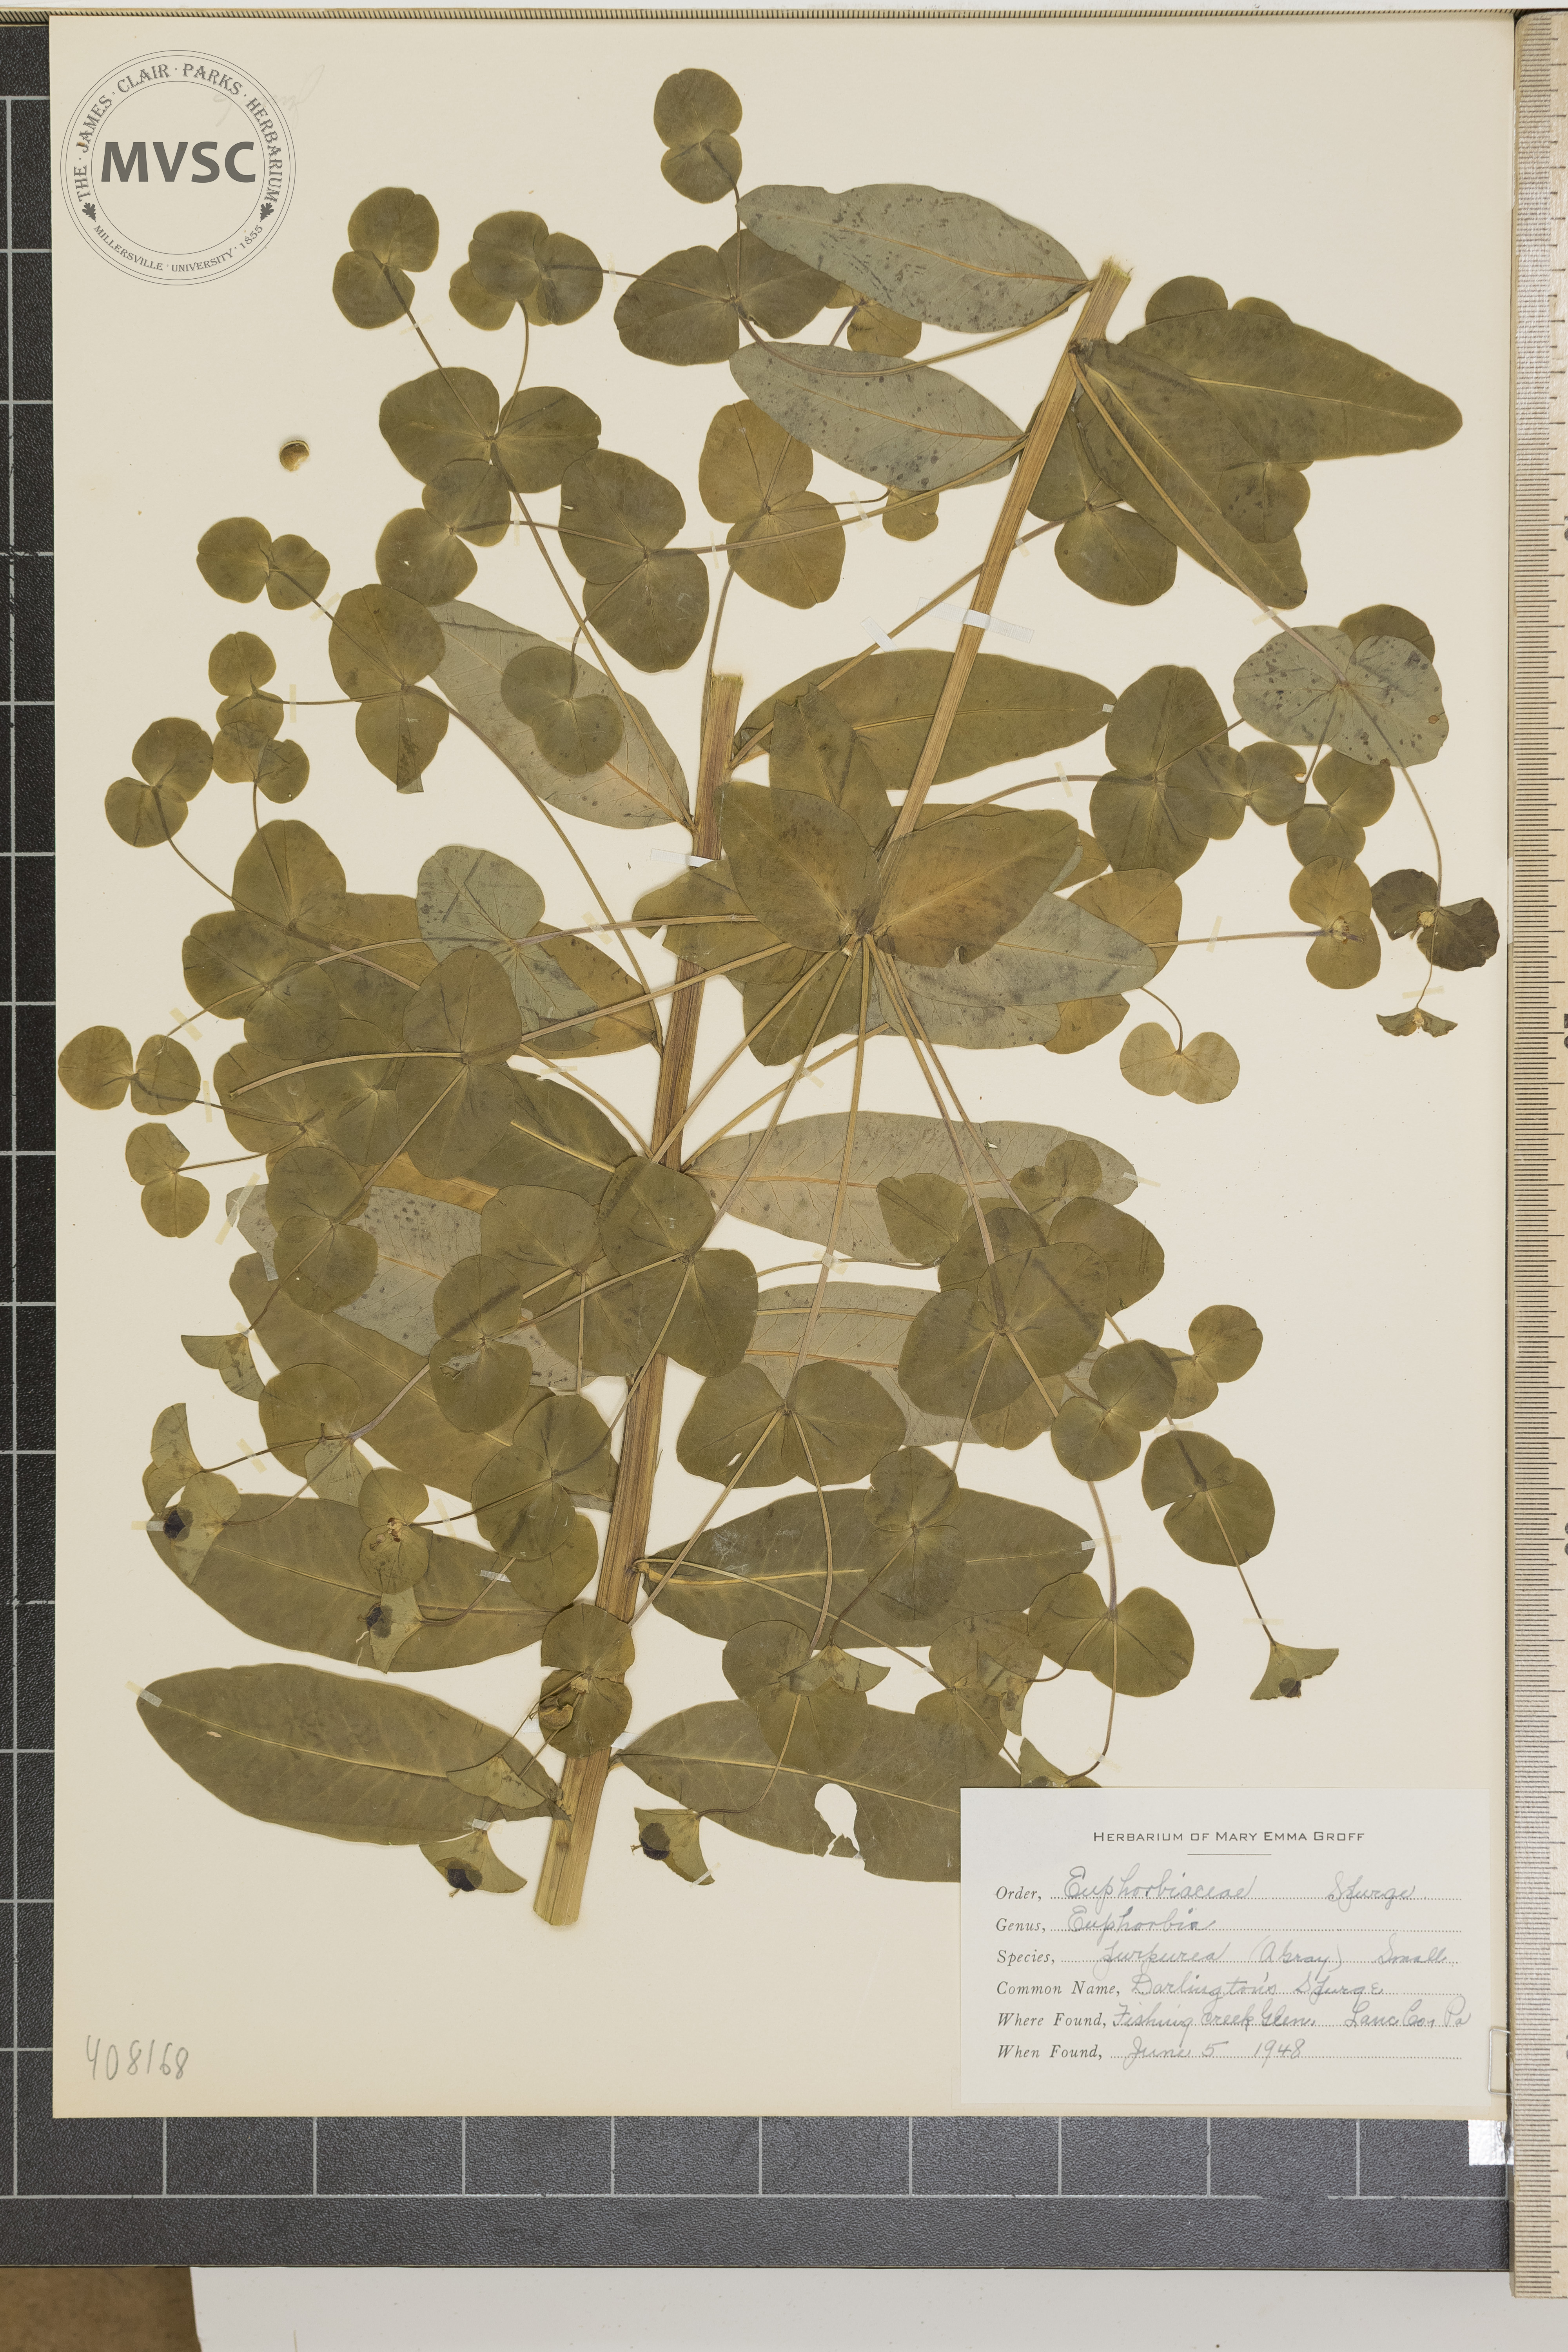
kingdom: Plantae
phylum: Tracheophyta
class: Magnoliopsida
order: Malpighiales
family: Euphorbiaceae
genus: Euphorbia
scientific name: Euphorbia purpurea
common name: Darlington's Spurge
